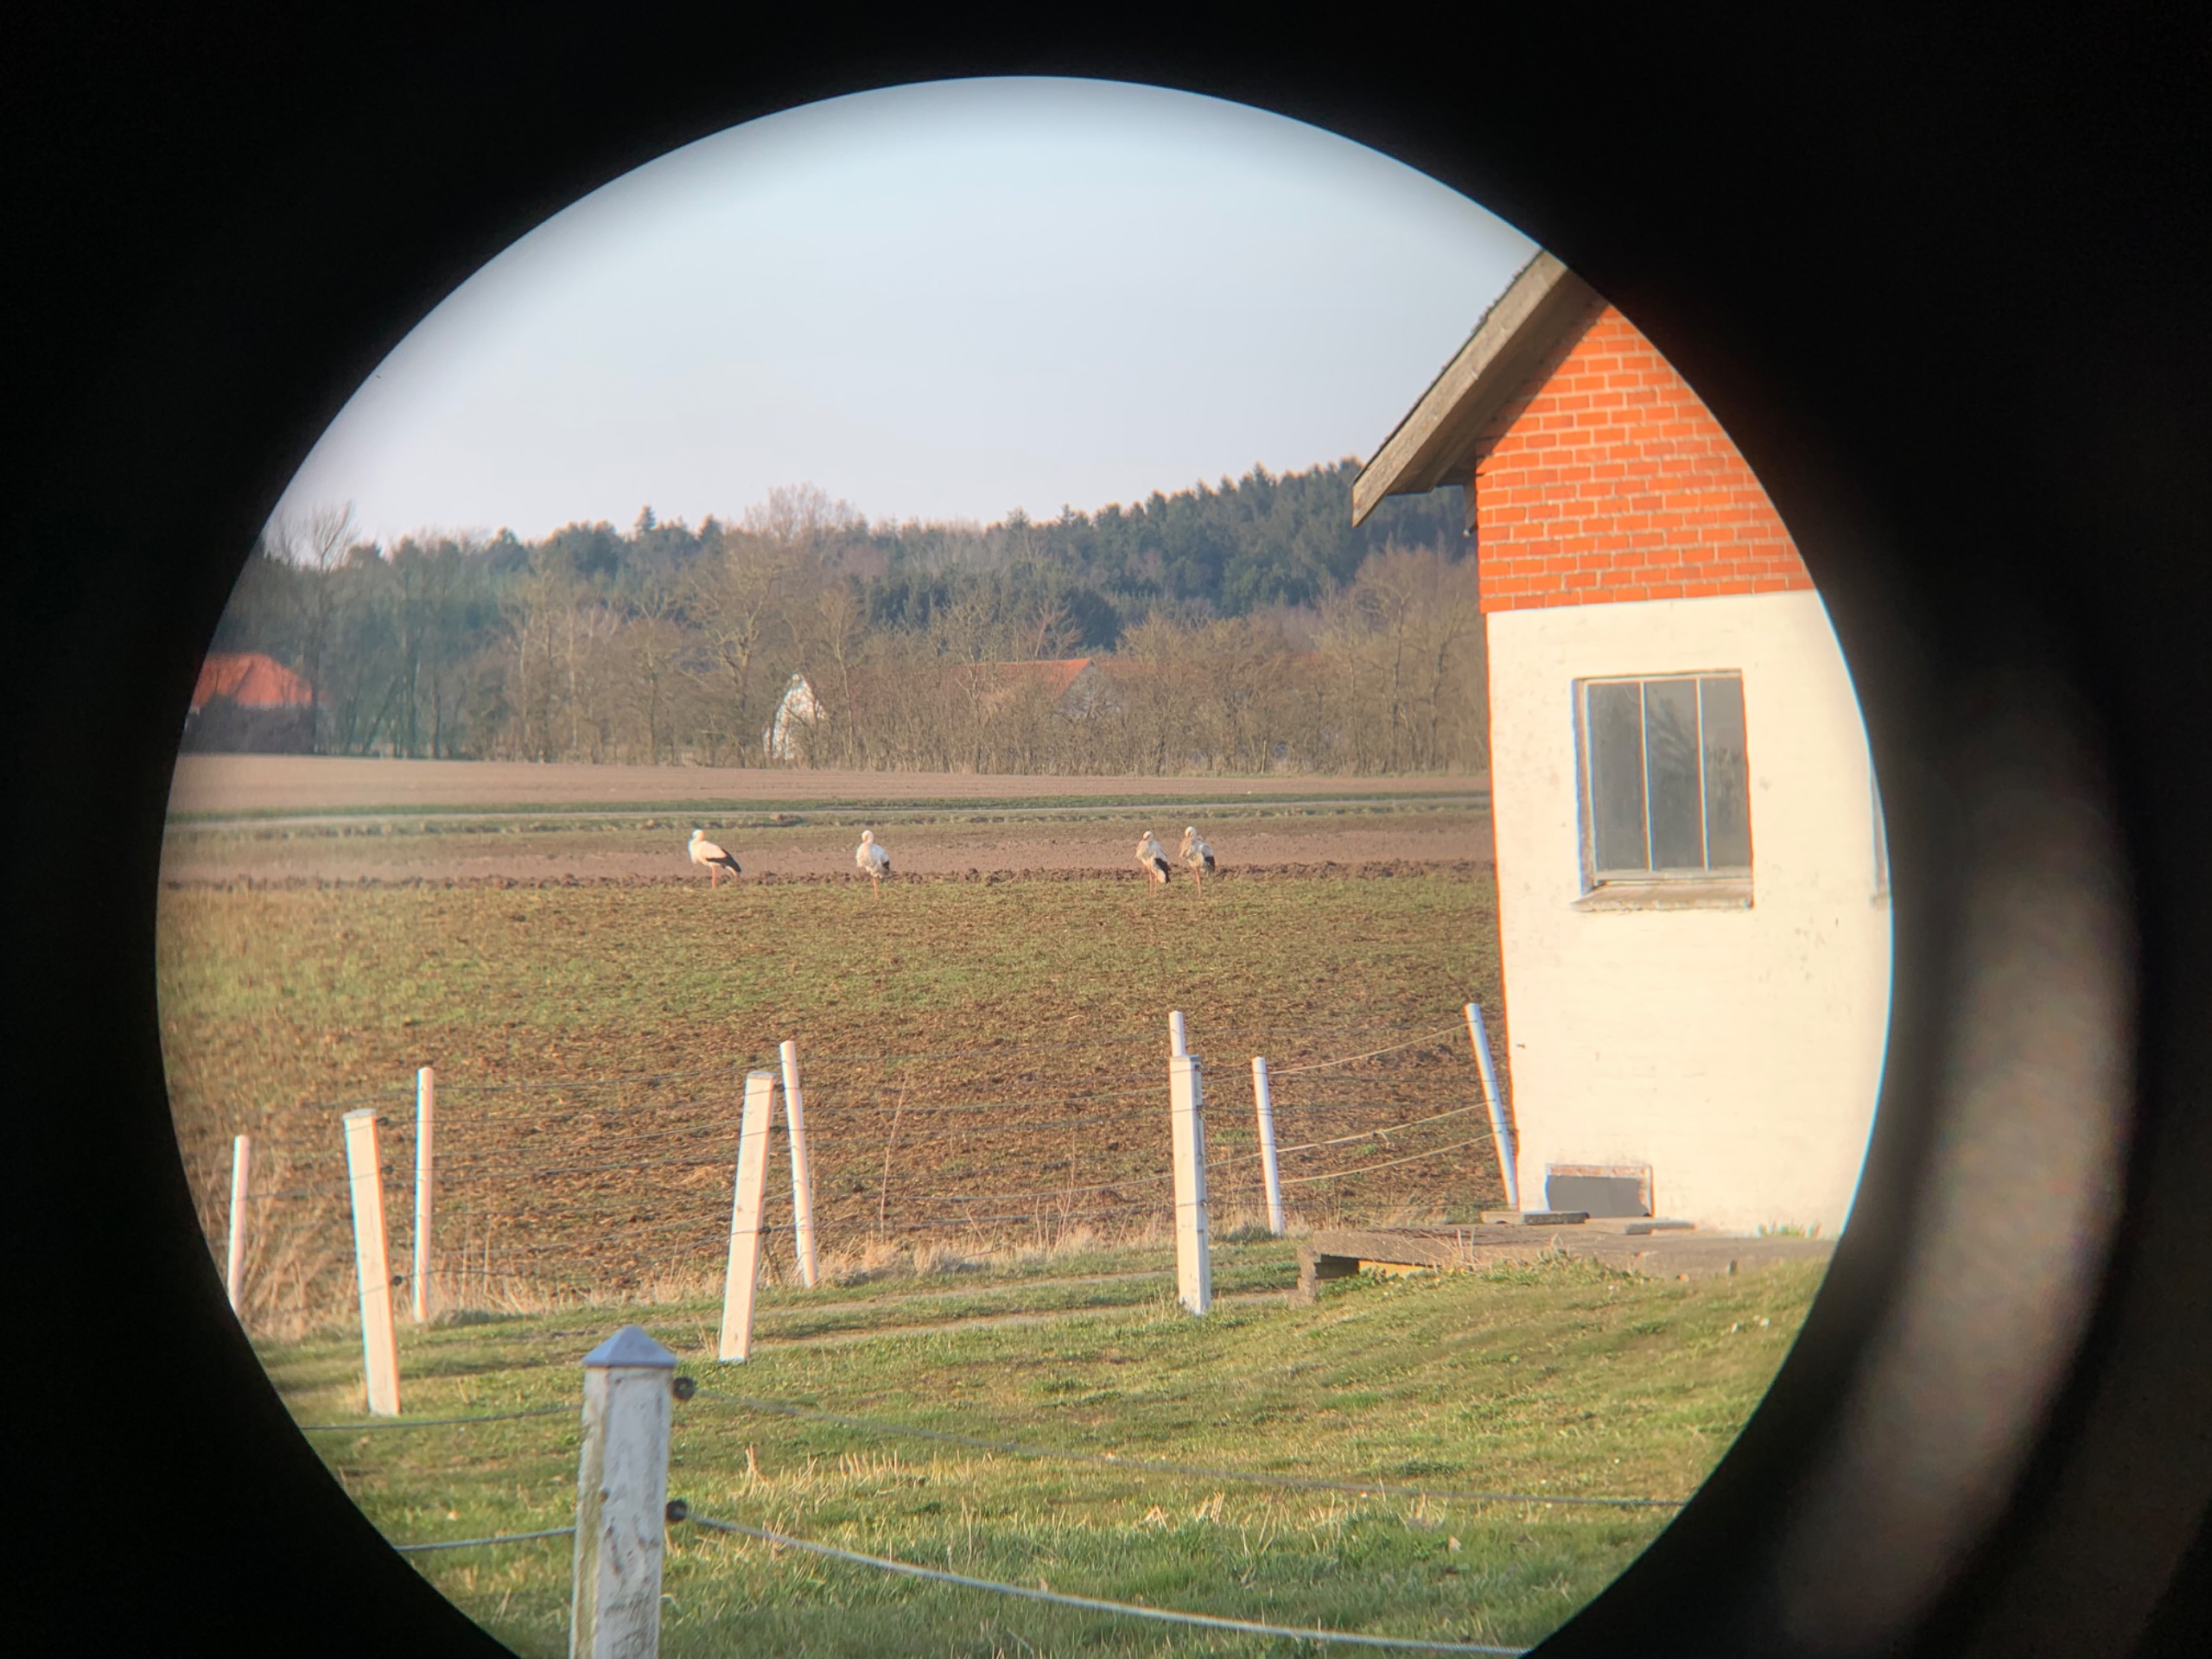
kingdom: Animalia
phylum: Chordata
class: Aves
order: Ciconiiformes
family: Ciconiidae
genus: Ciconia
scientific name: Ciconia ciconia
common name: Hvid stork
